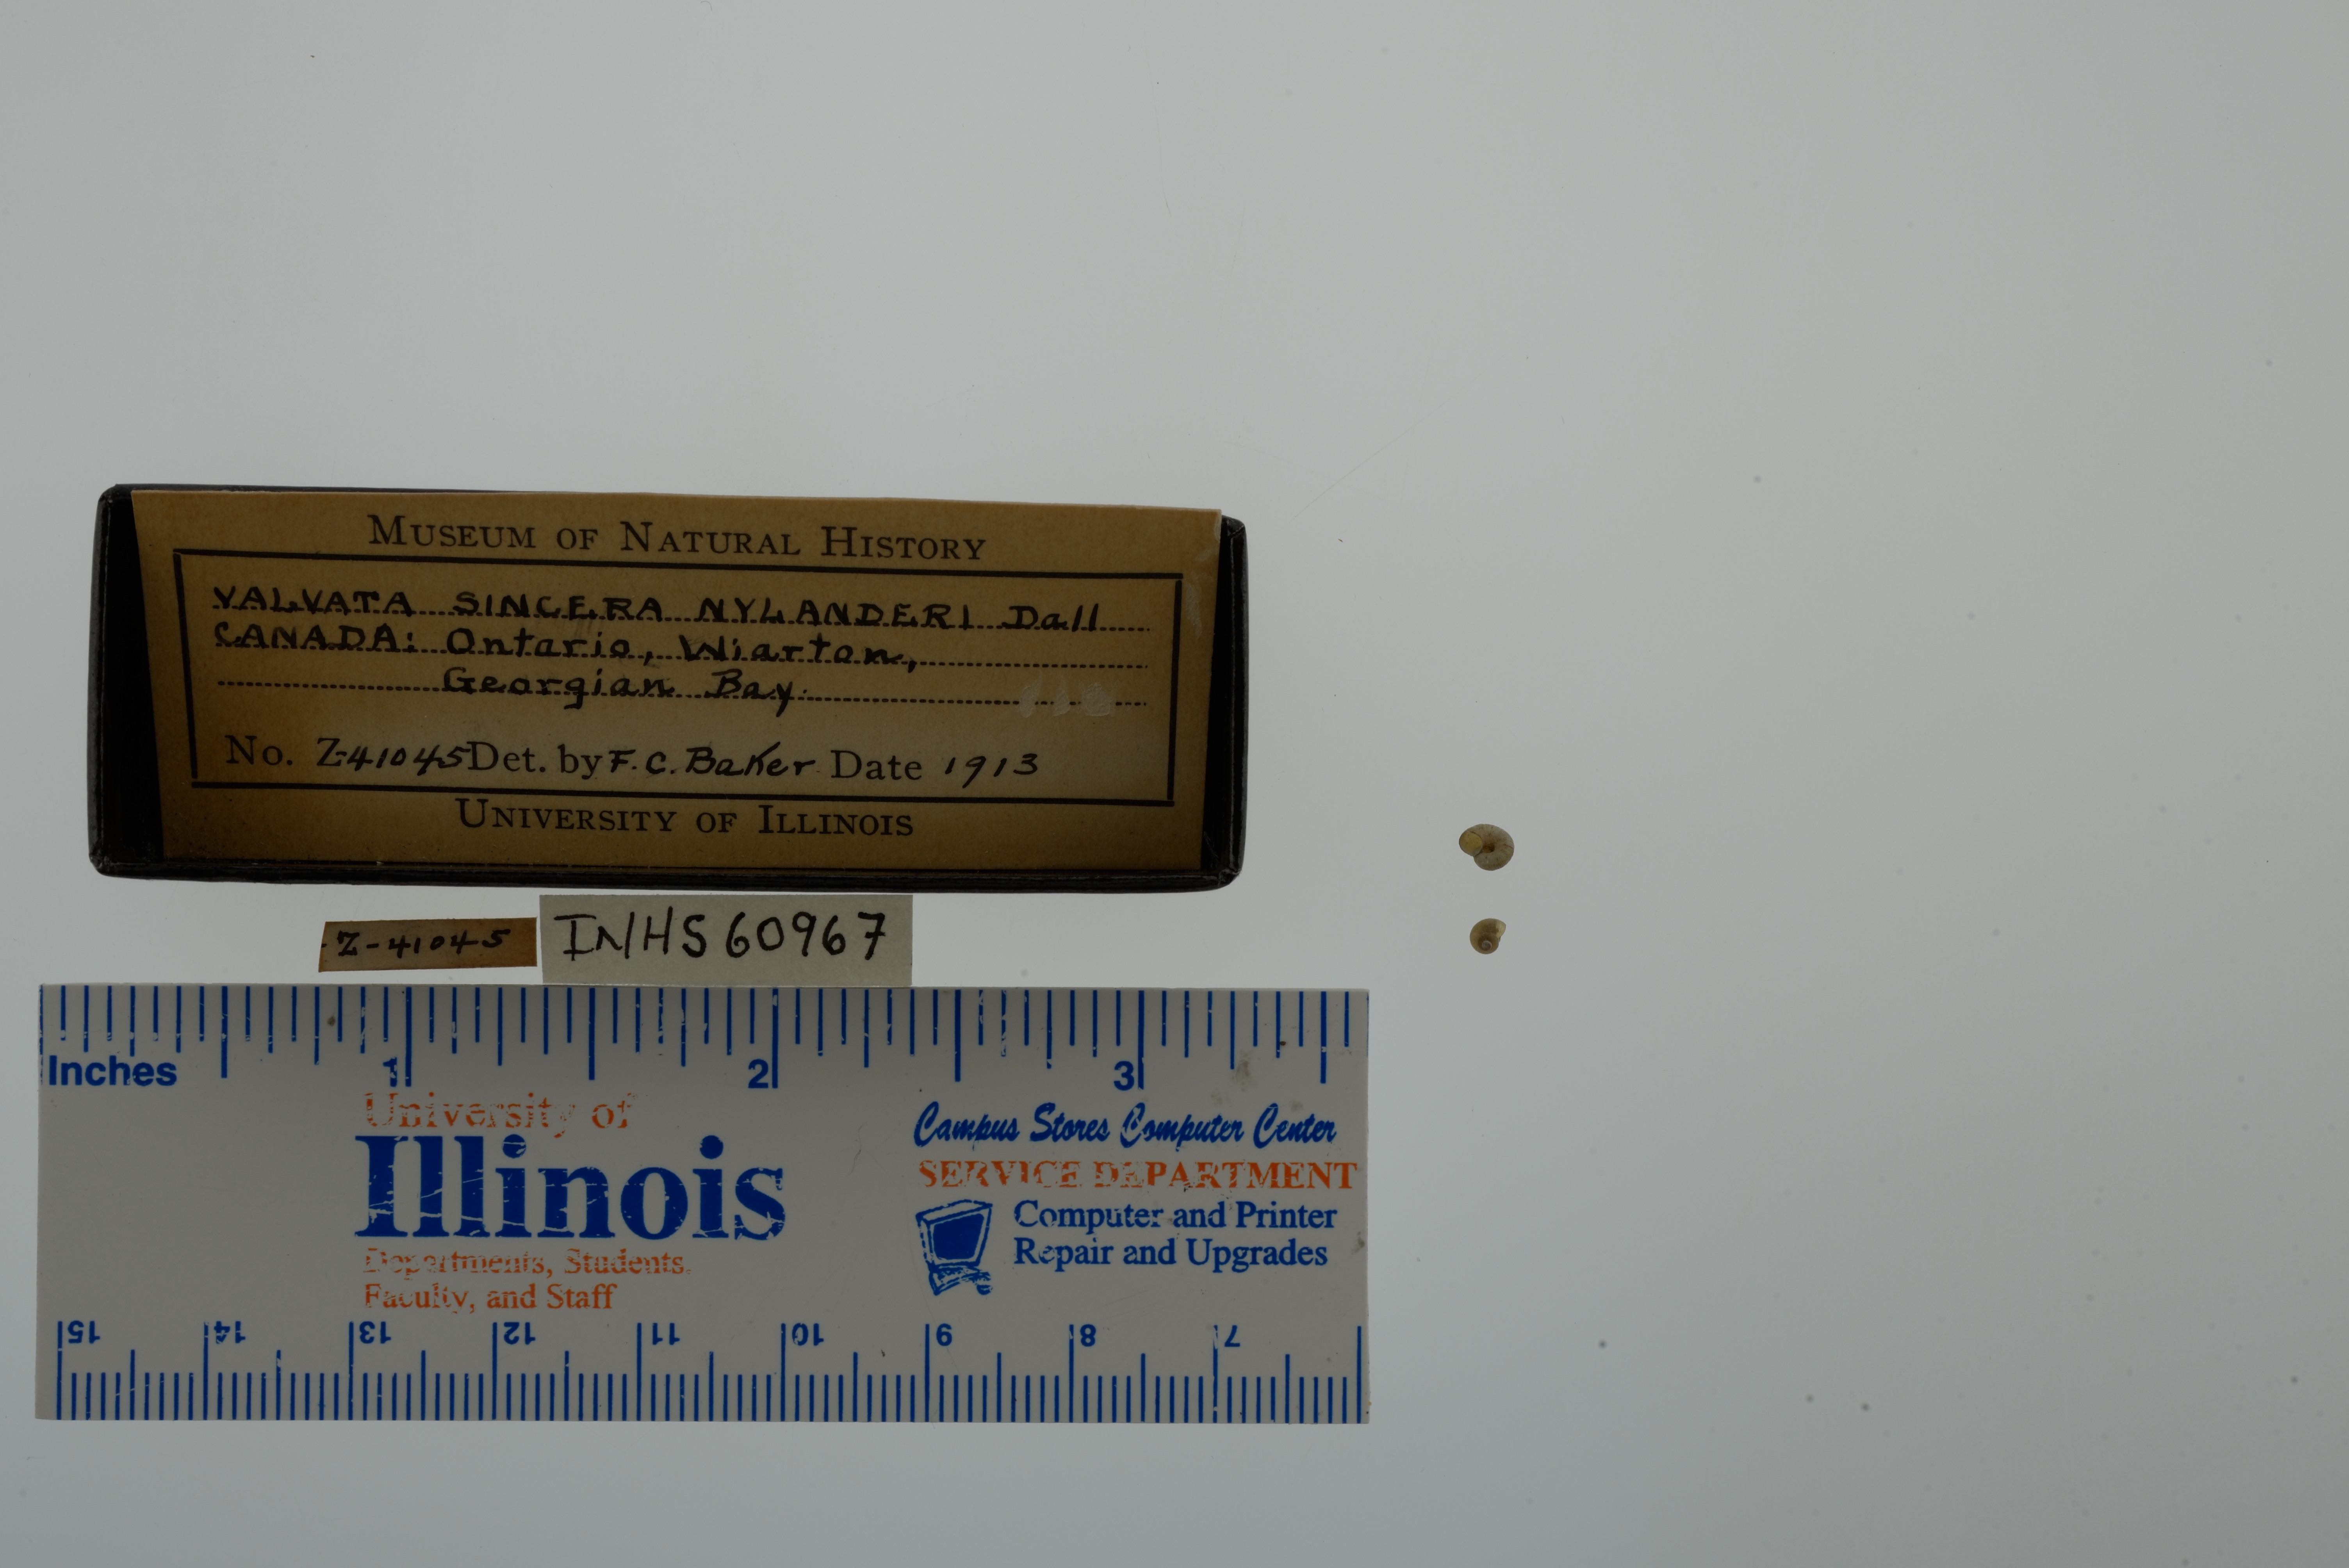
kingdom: Animalia
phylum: Mollusca
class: Gastropoda
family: Valvatidae
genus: Valvata
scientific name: Valvata sincera
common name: Mossy valvata
